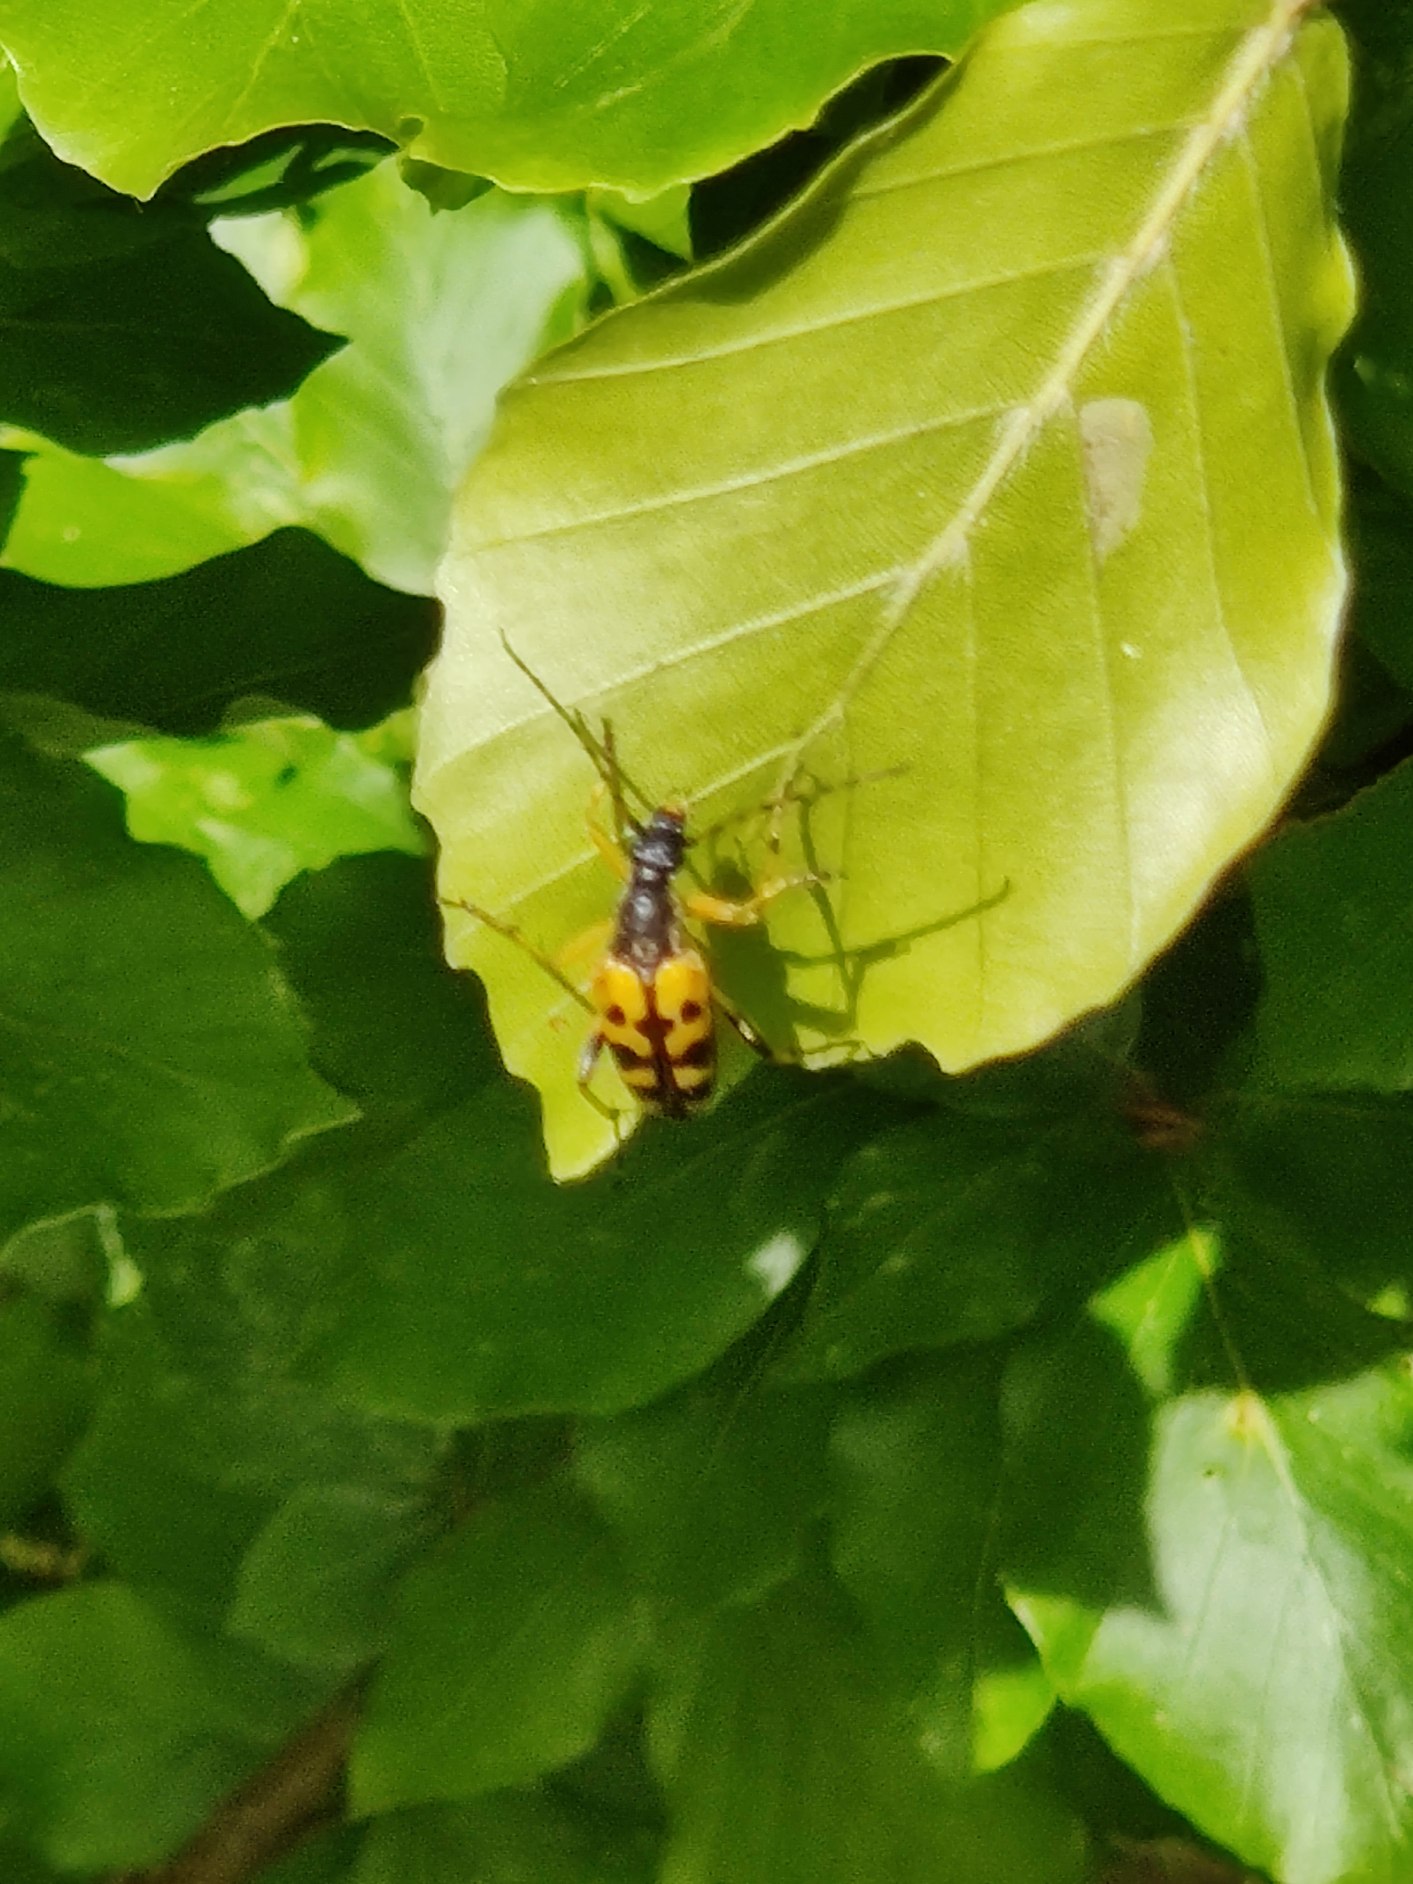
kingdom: Animalia
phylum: Arthropoda
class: Insecta
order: Coleoptera
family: Cerambycidae
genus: Rutpela
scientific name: Rutpela maculata
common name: Sydlig blomsterbuk
